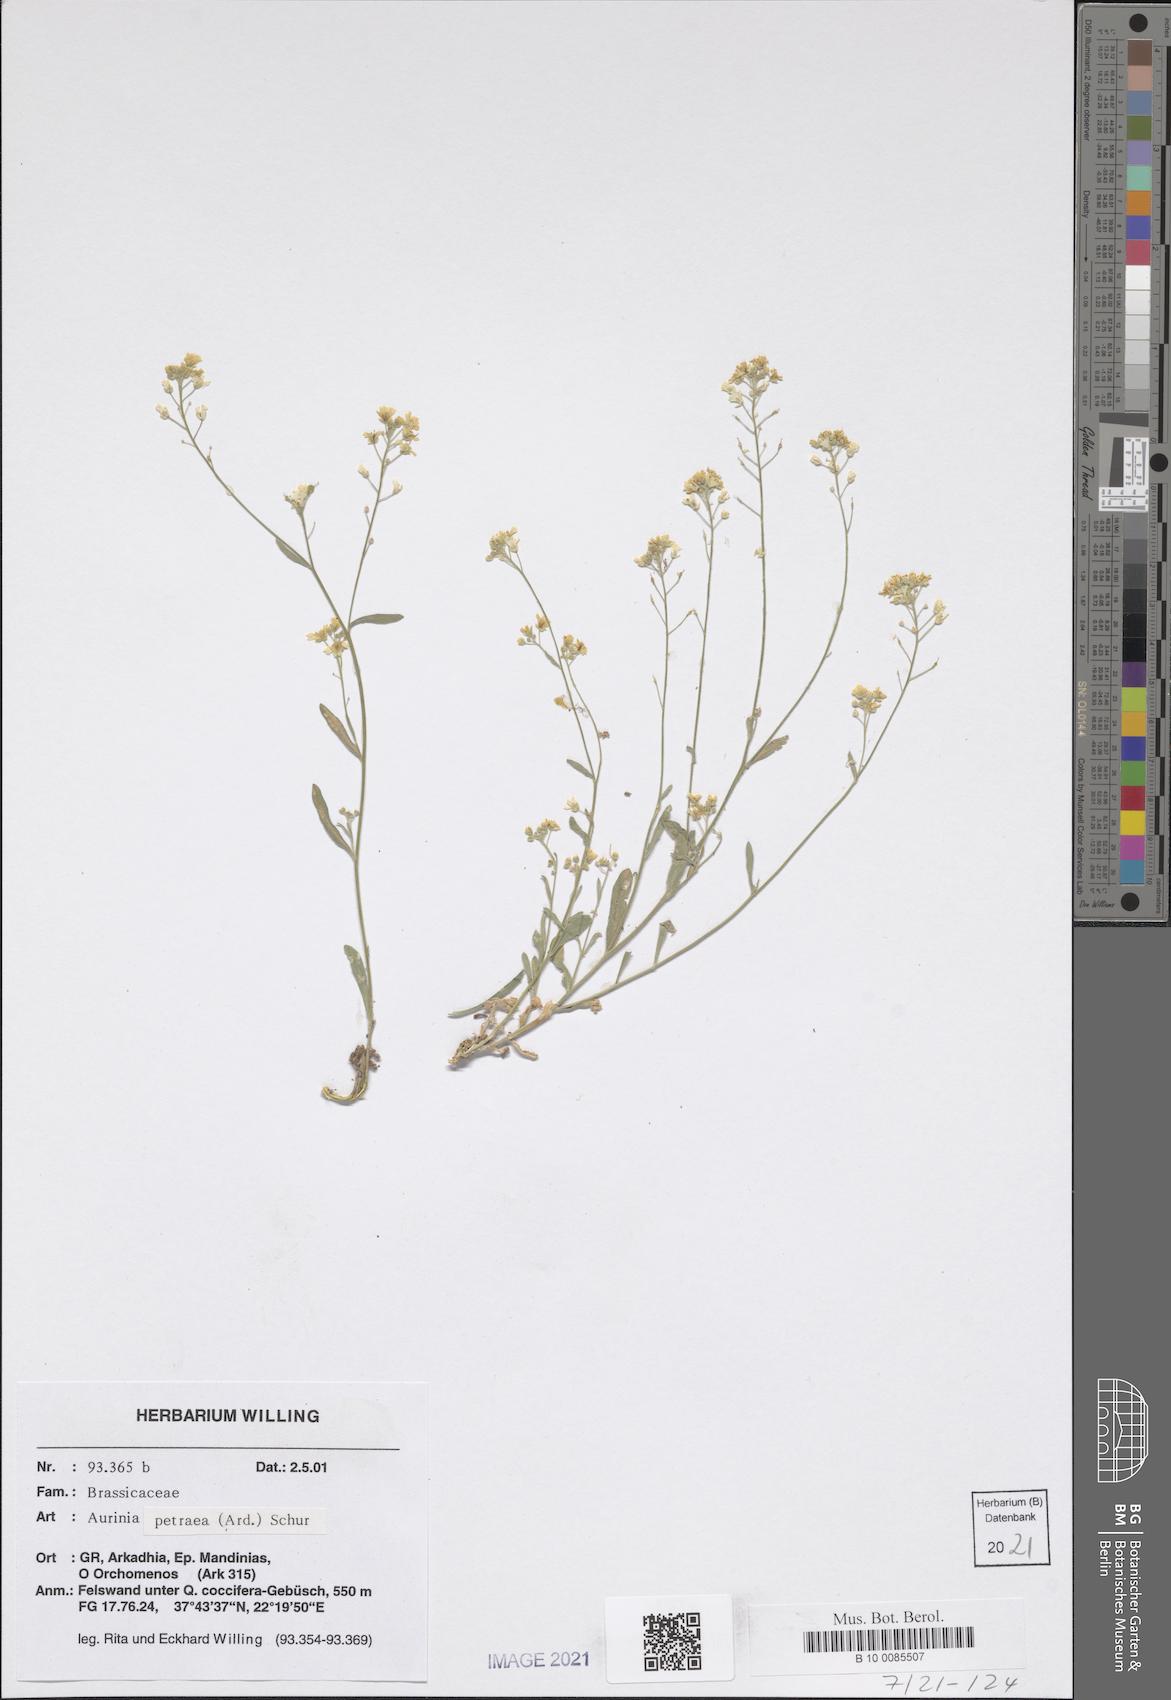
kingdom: Plantae
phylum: Tracheophyta
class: Magnoliopsida
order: Brassicales
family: Brassicaceae
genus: Aurinia
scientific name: Aurinia petraea
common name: Goldentuft
